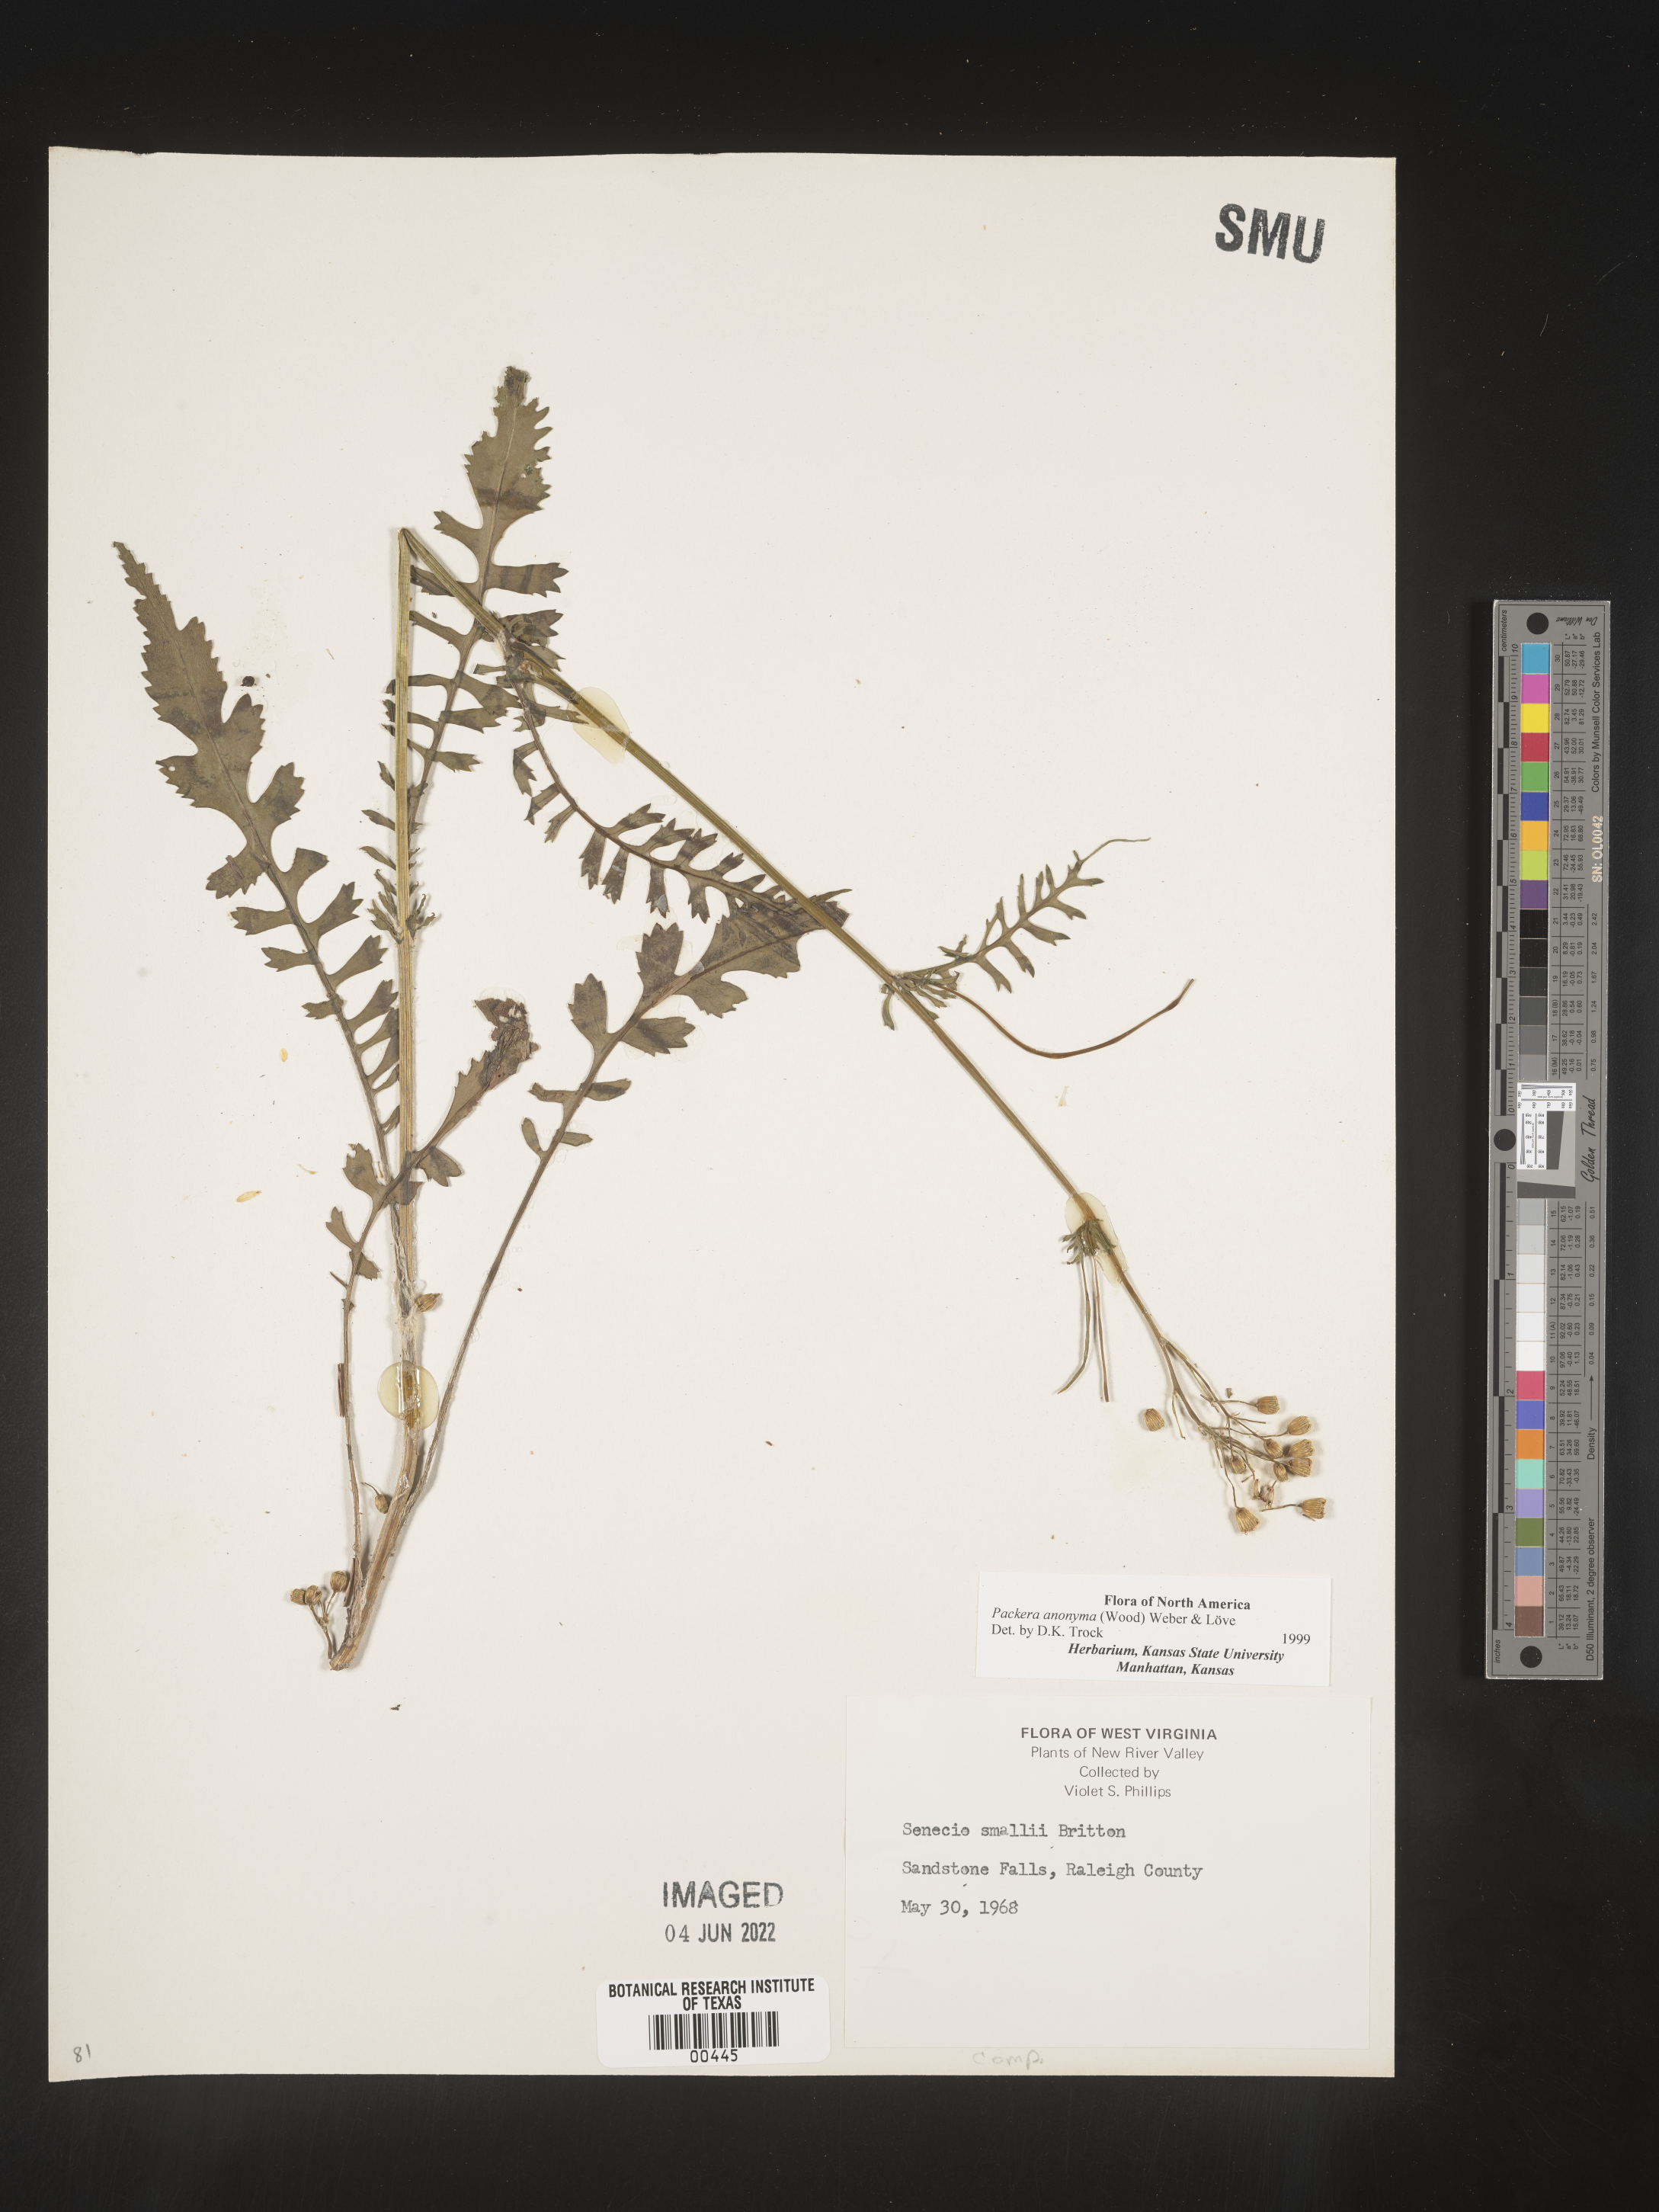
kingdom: Plantae
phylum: Tracheophyta
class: Magnoliopsida
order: Asterales
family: Asteraceae
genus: Packera
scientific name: Packera anonyma
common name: Small ragwort
